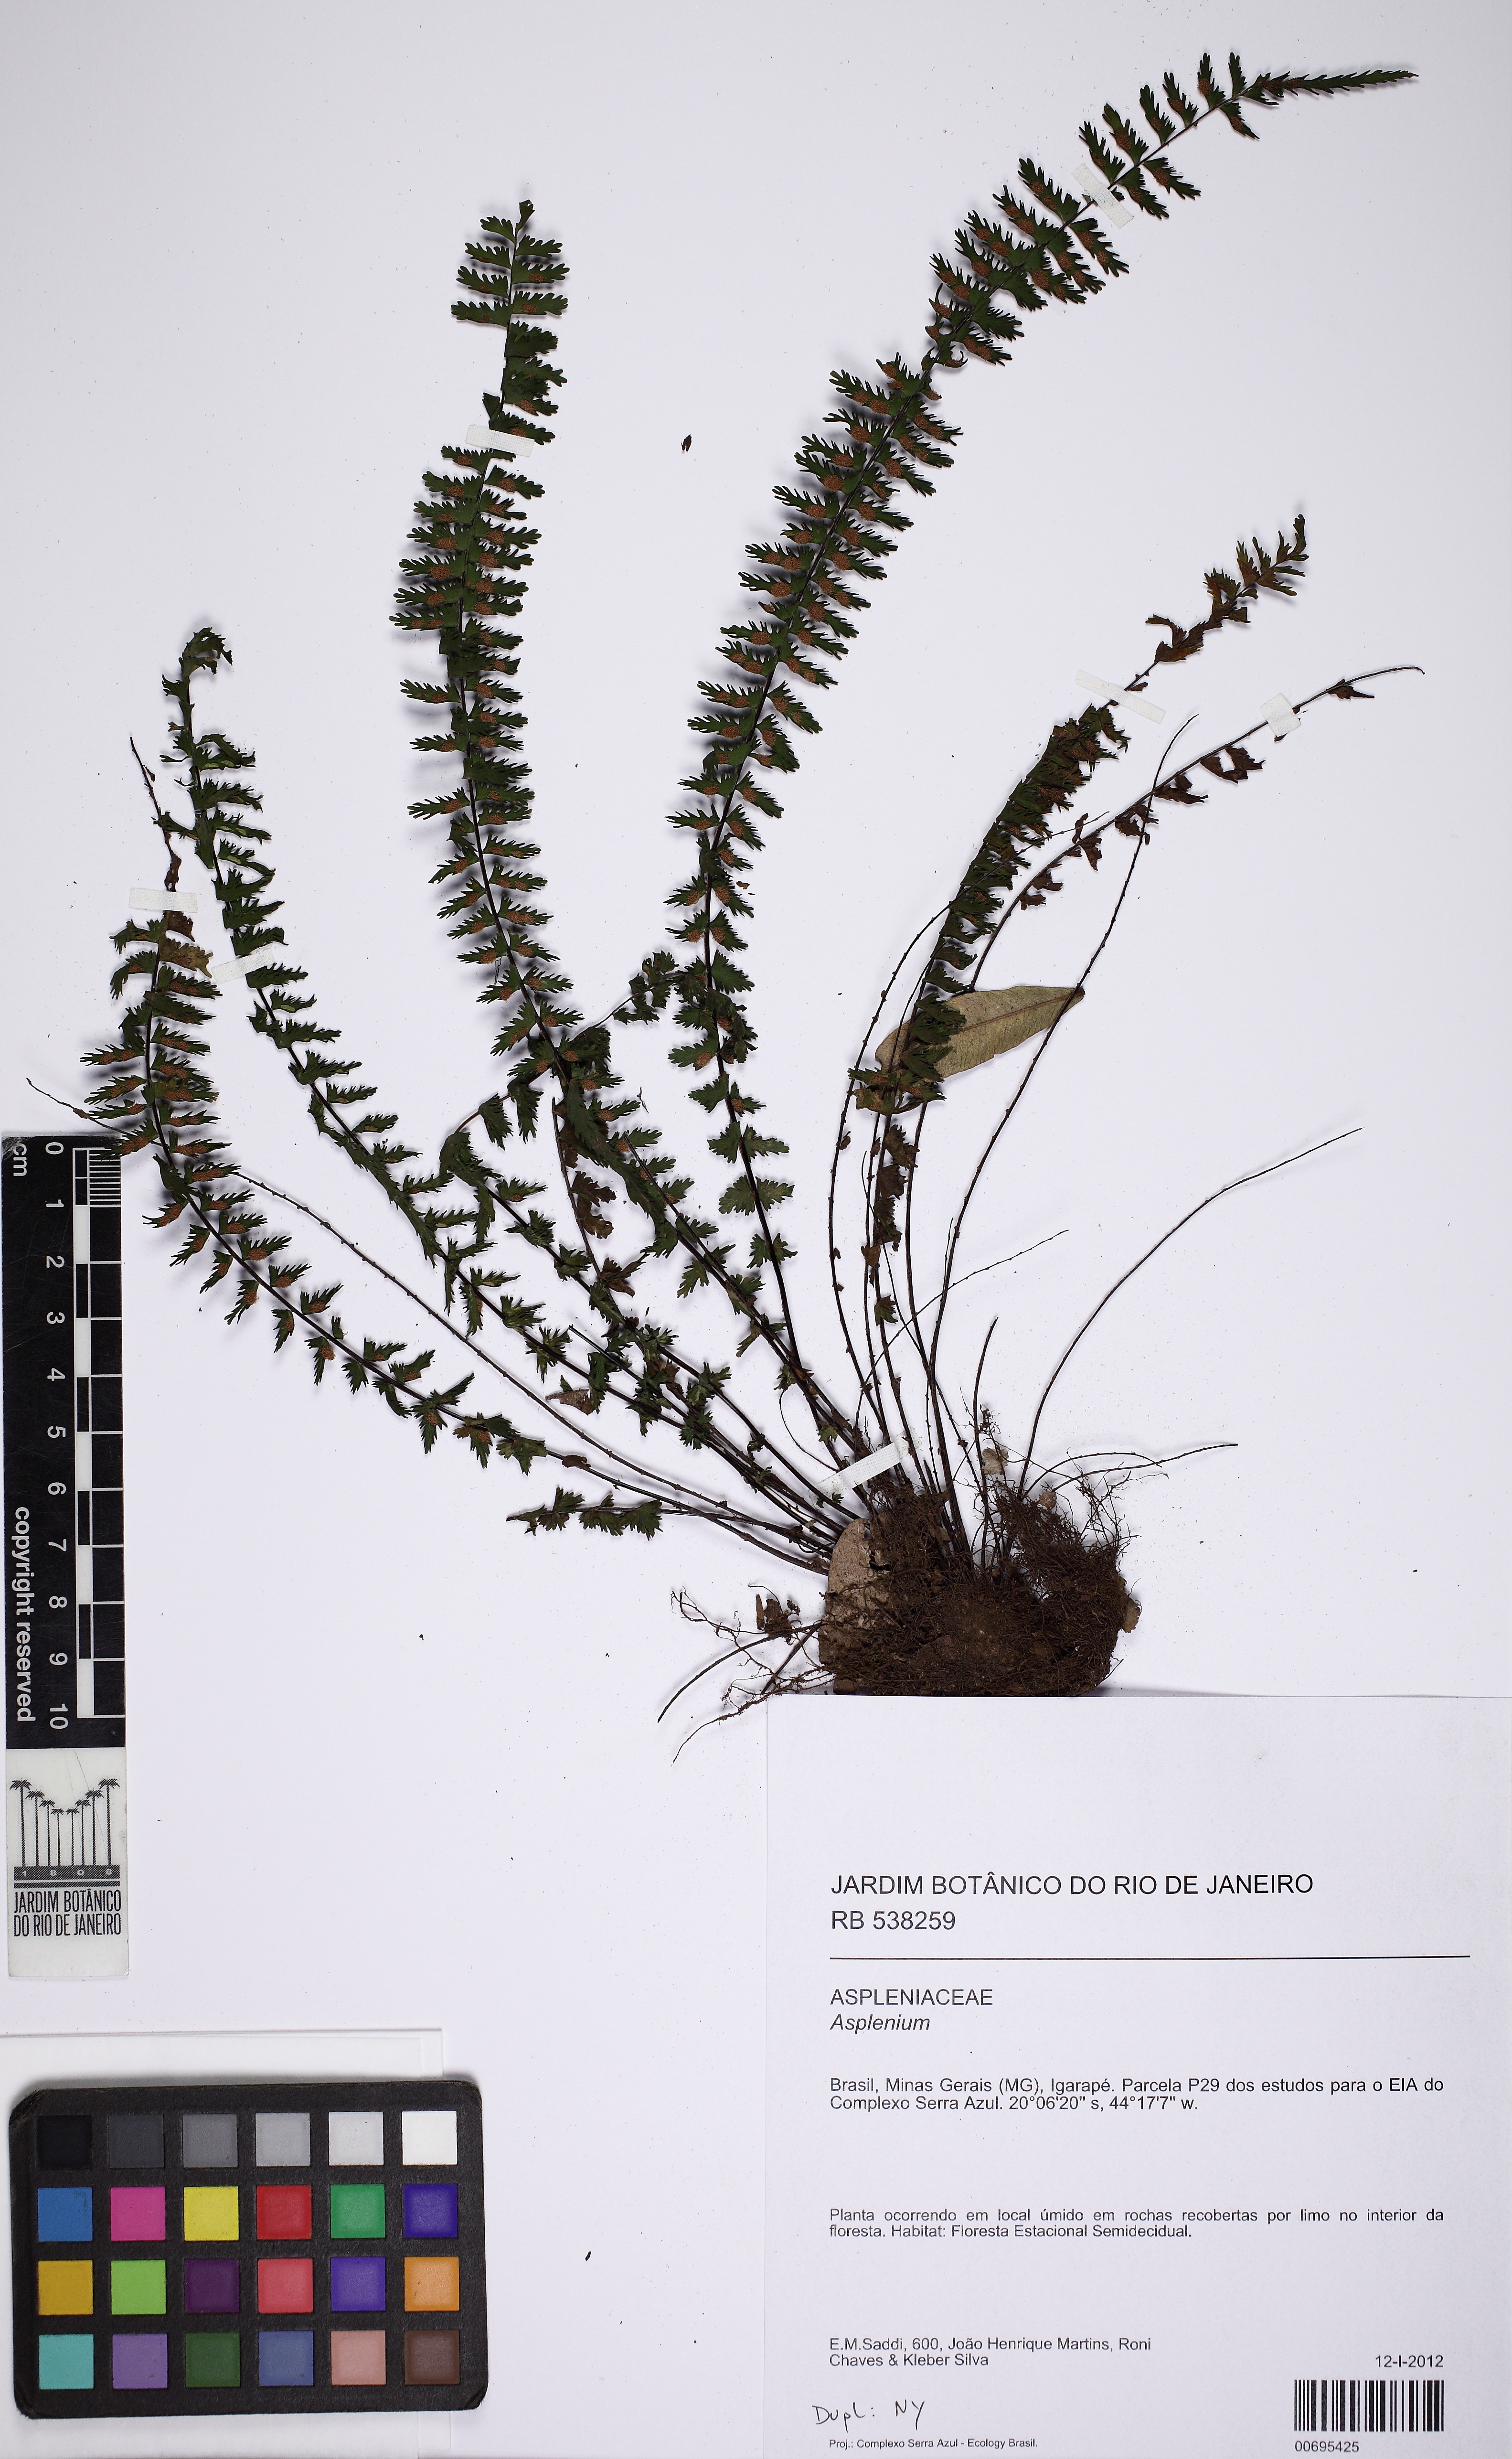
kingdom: Plantae
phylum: Tracheophyta
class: Polypodiopsida
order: Polypodiales
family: Aspleniaceae
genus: Asplenium
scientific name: Asplenium formosum
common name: Showy spleenwort
